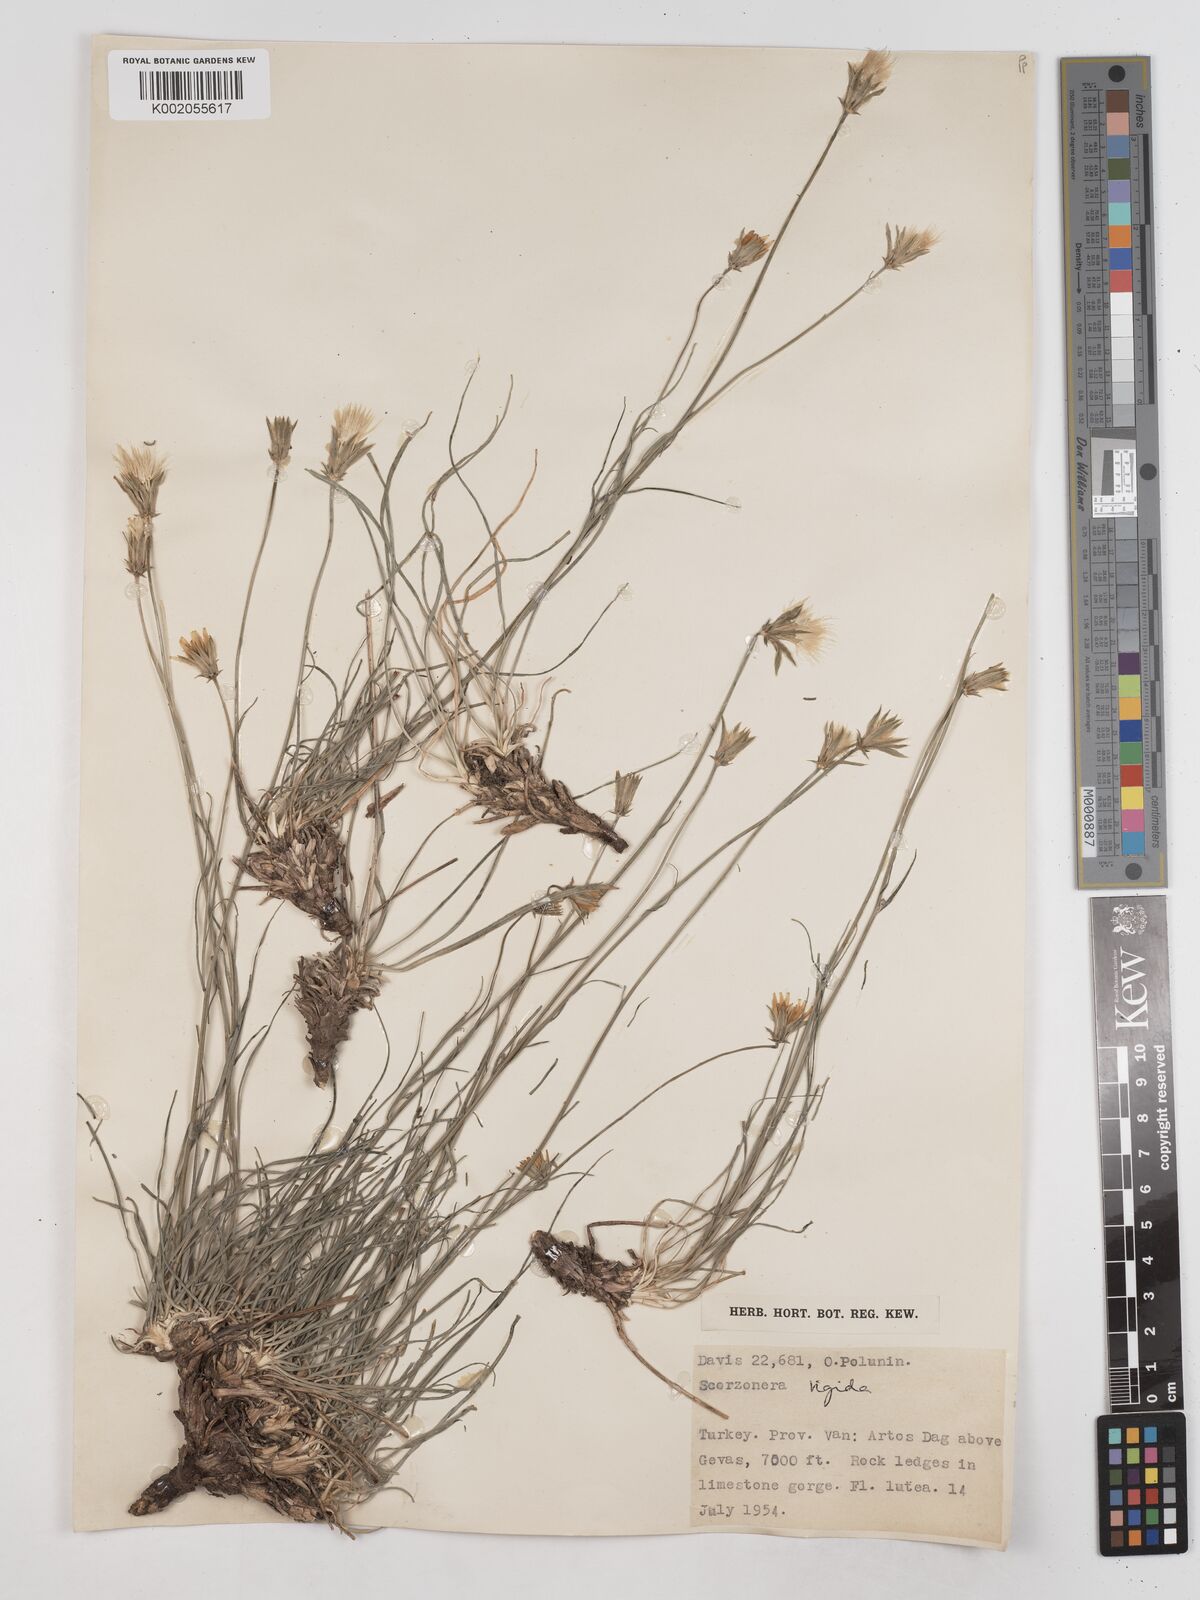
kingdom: Plantae
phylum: Tracheophyta
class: Magnoliopsida
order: Asterales
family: Asteraceae
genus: Scorzonera
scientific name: Scorzonera
